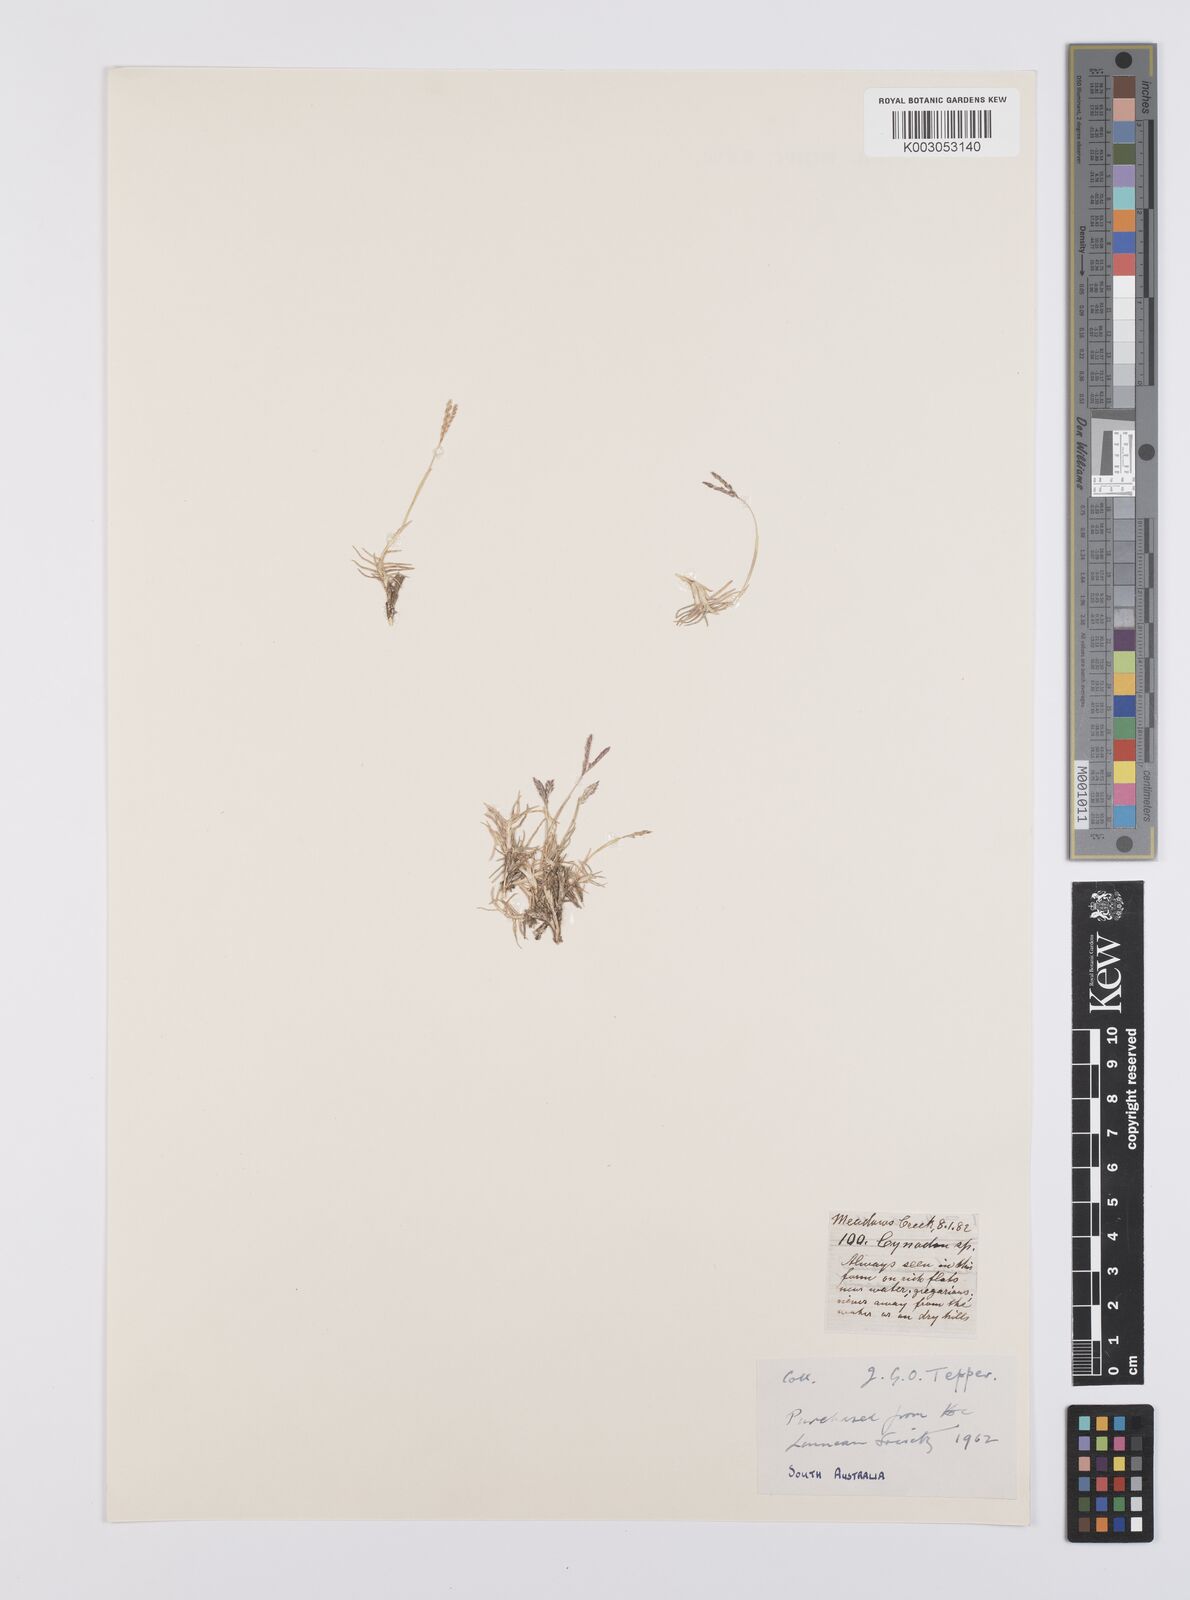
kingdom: Plantae
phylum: Tracheophyta
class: Liliopsida
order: Poales
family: Poaceae
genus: Cynodon
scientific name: Cynodon dactylon
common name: Bermuda grass
